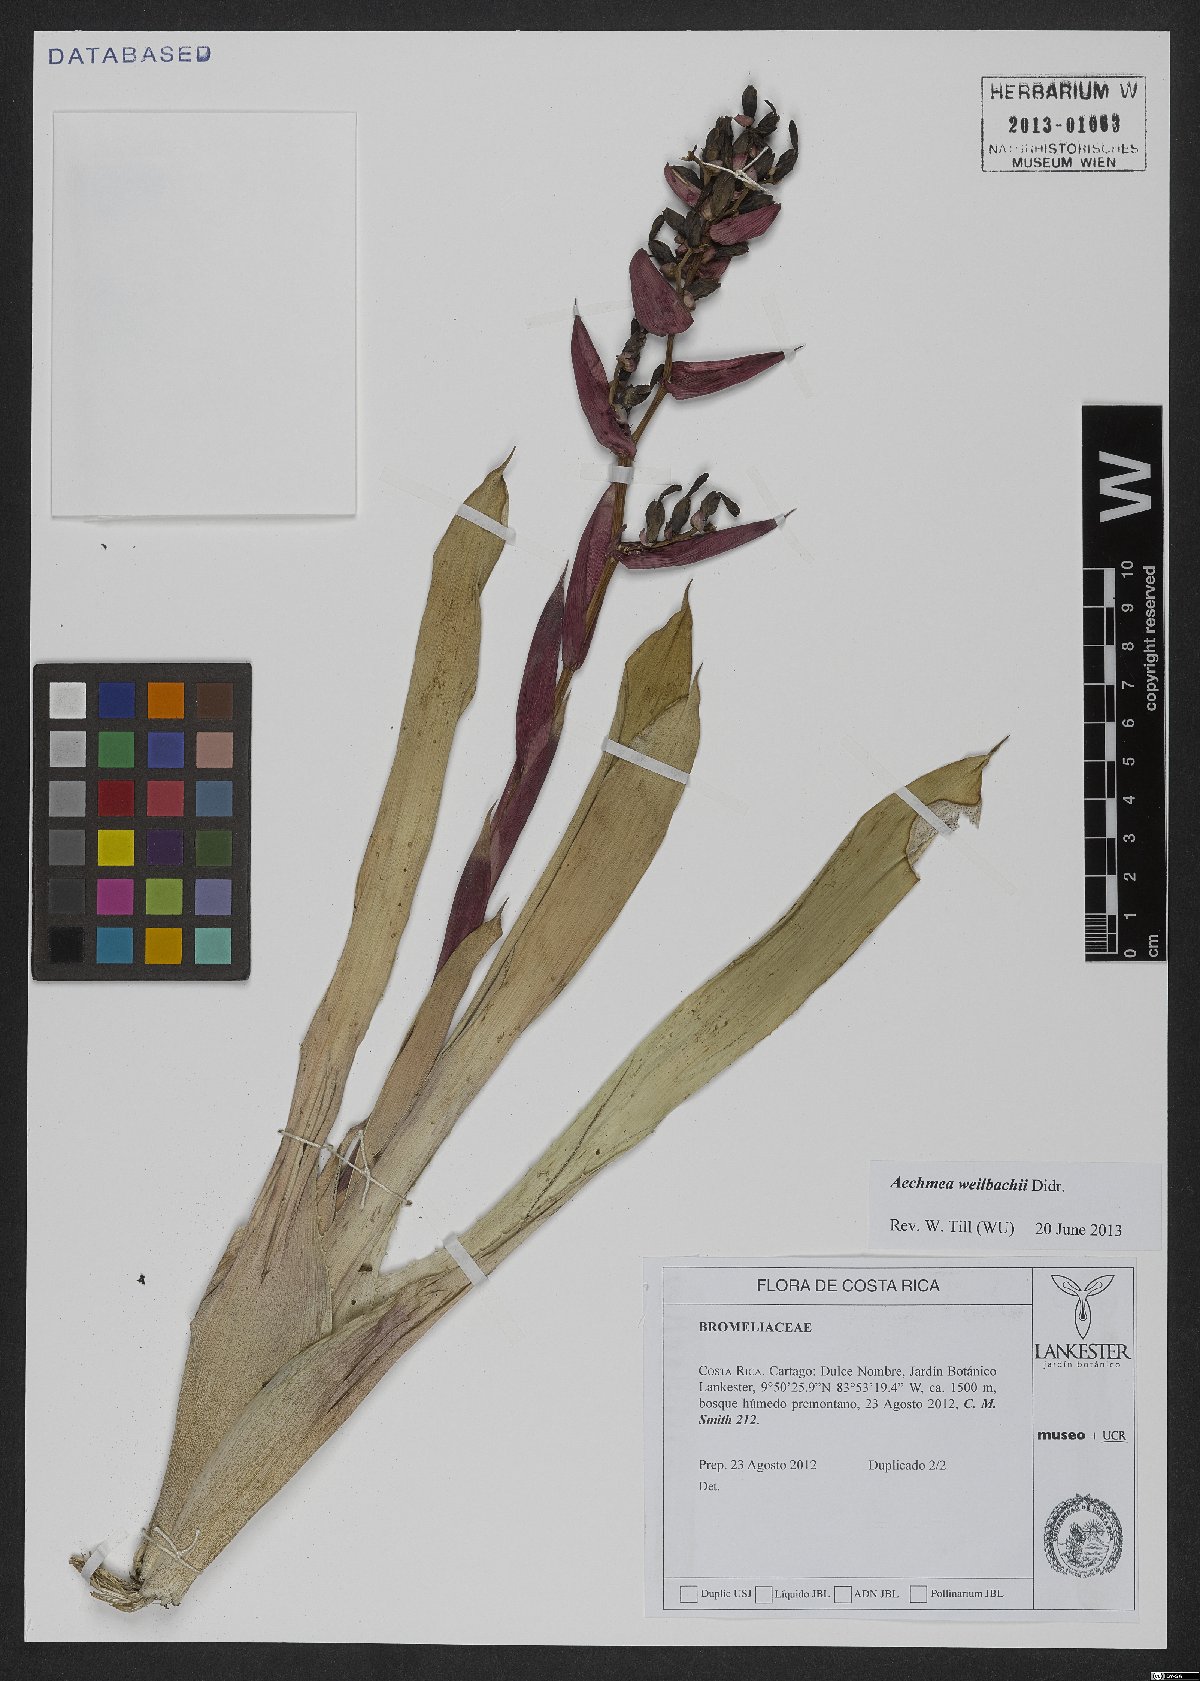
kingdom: Plantae
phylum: Tracheophyta
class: Liliopsida
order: Poales
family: Bromeliaceae
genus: Aechmea
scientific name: Aechmea weilbachii
